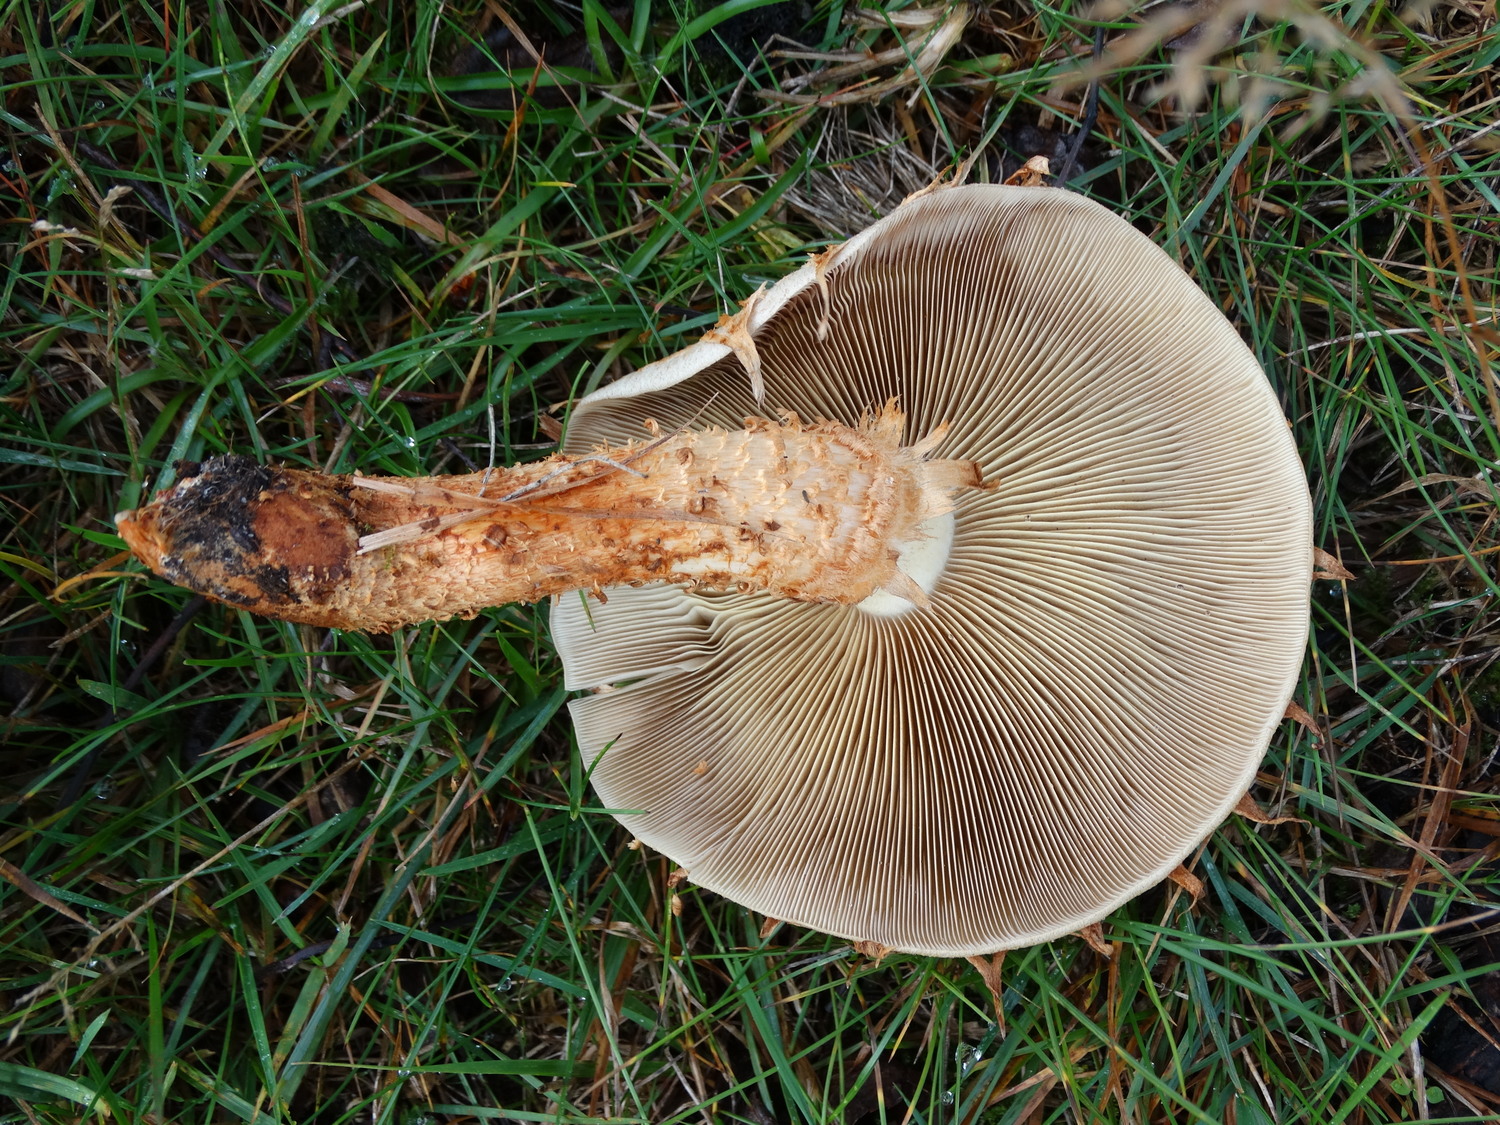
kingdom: Fungi
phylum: Basidiomycota
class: Agaricomycetes
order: Agaricales
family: Strophariaceae
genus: Pholiota
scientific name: Pholiota squarrosa
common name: krumskællet skælhat
